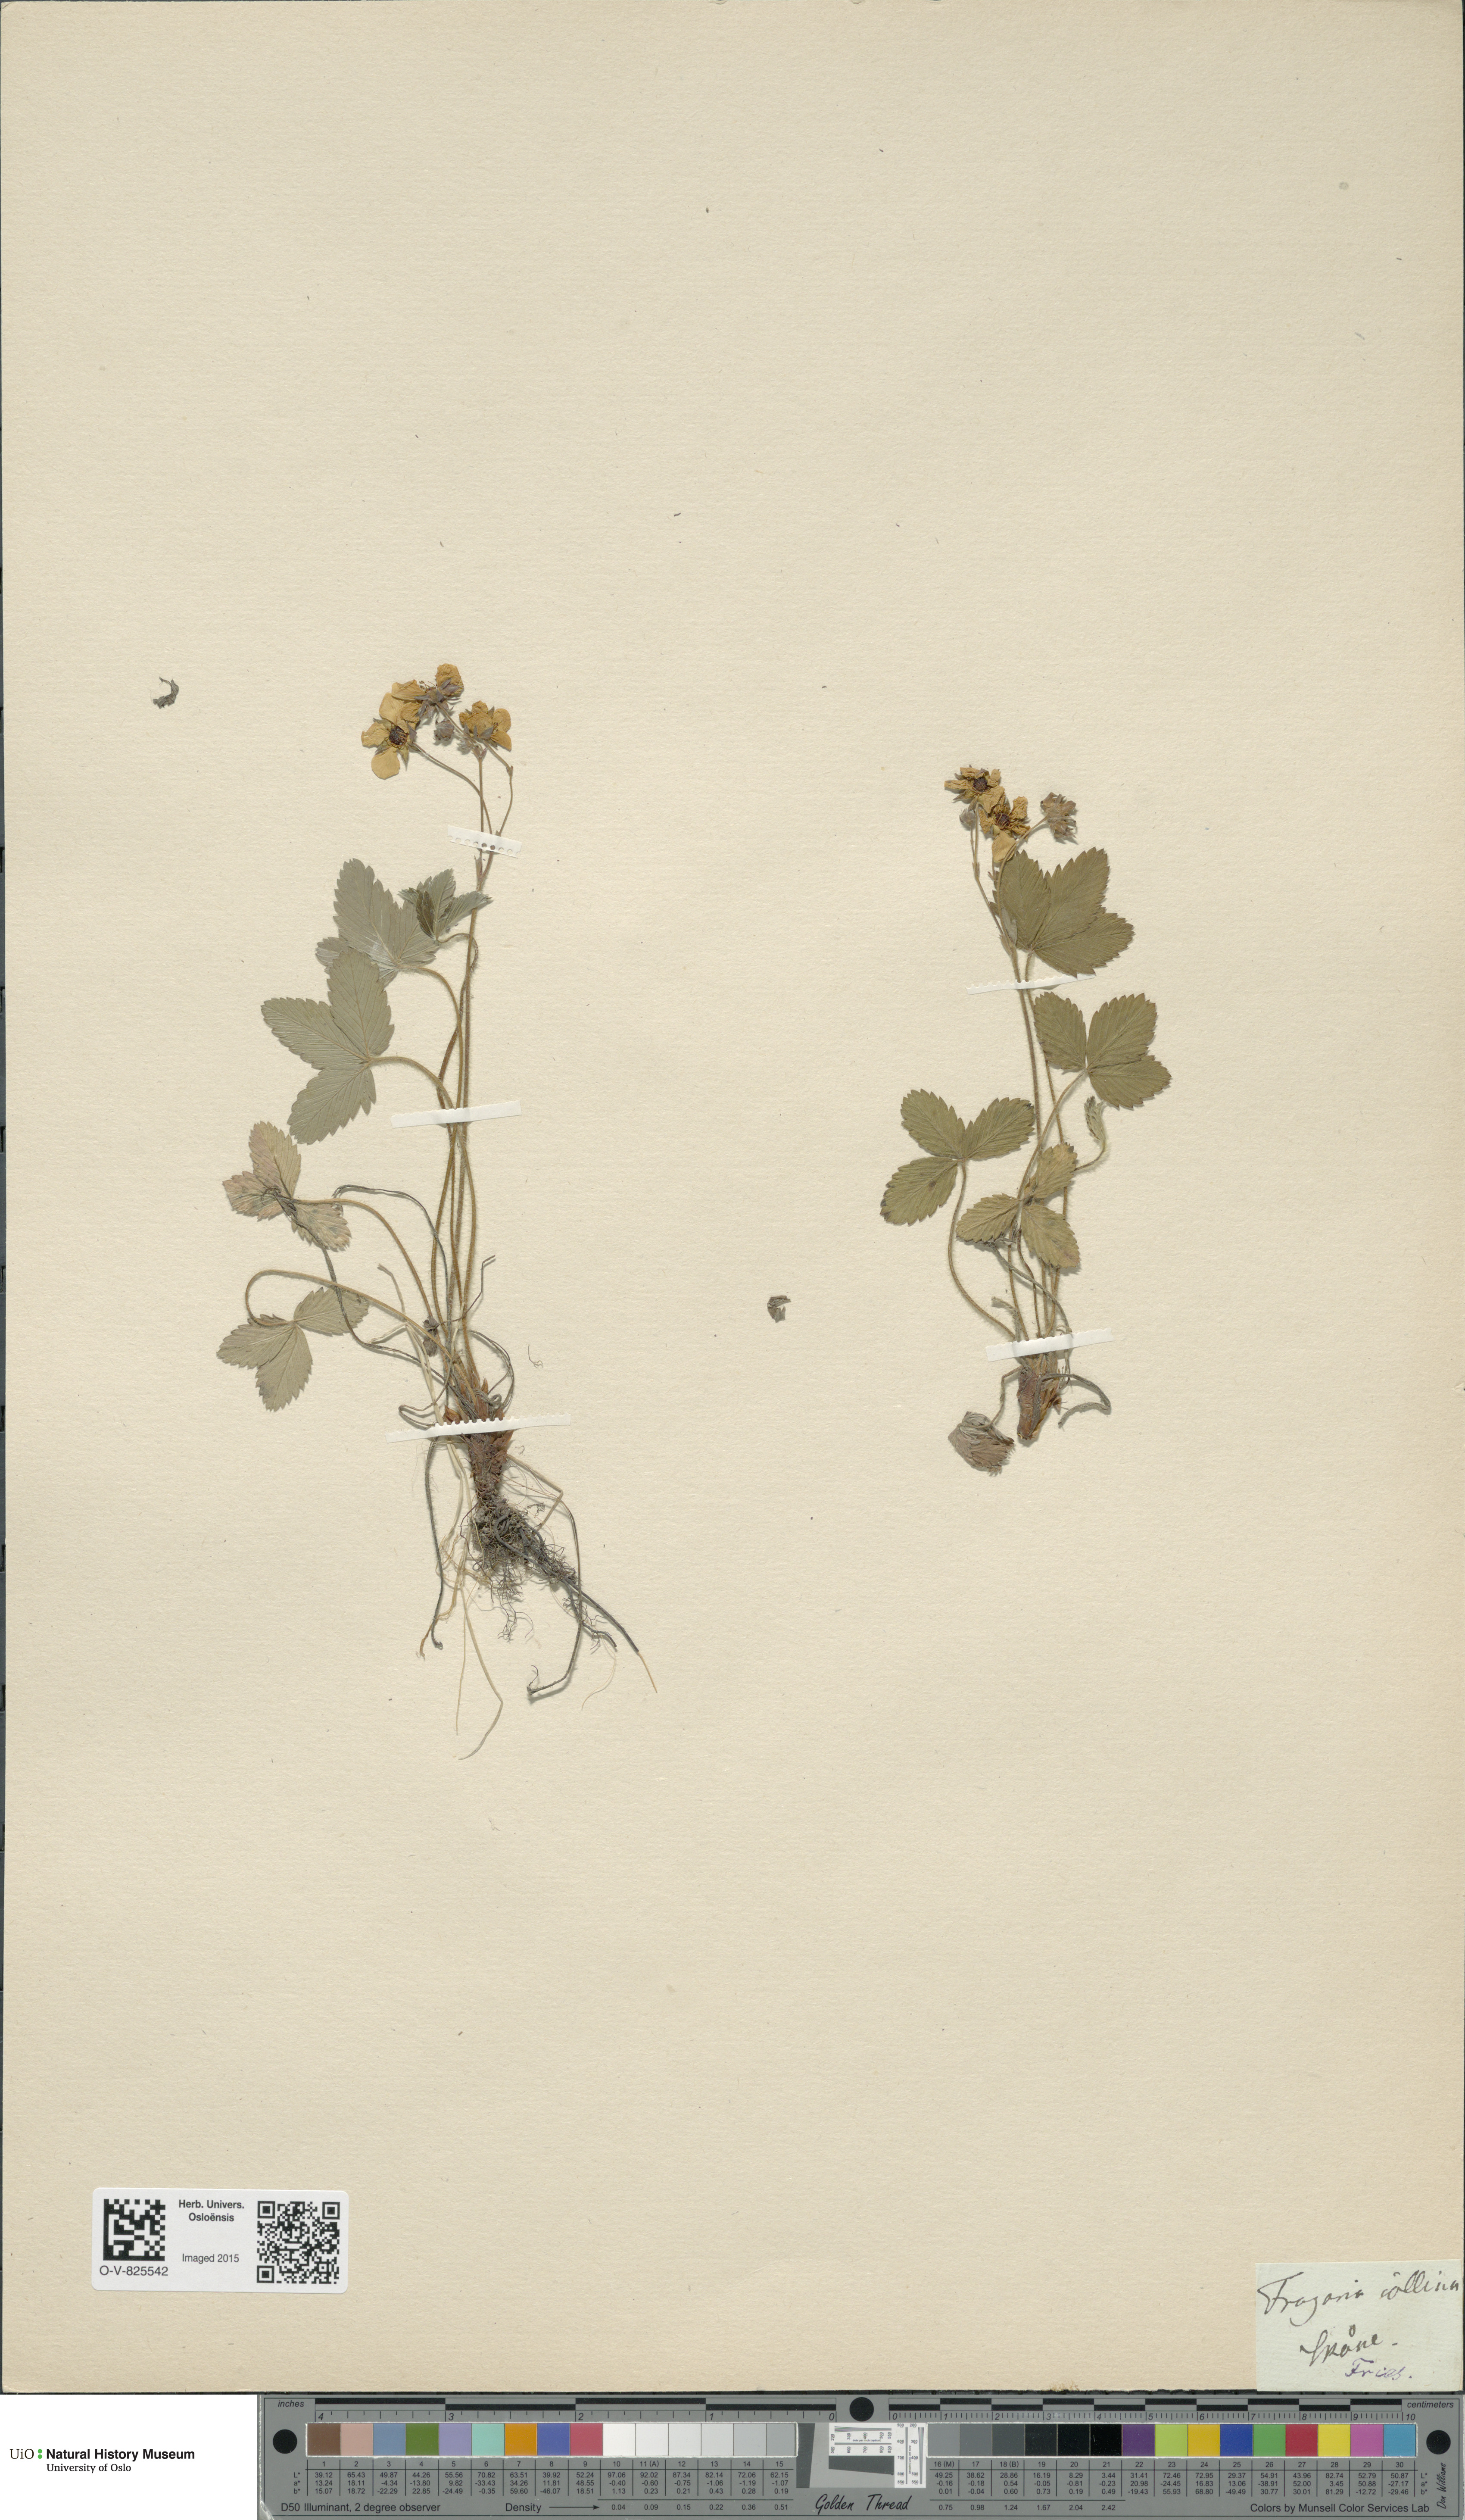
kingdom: Plantae
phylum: Tracheophyta
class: Magnoliopsida
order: Rosales
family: Rosaceae
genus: Fragaria
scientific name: Fragaria viridis
